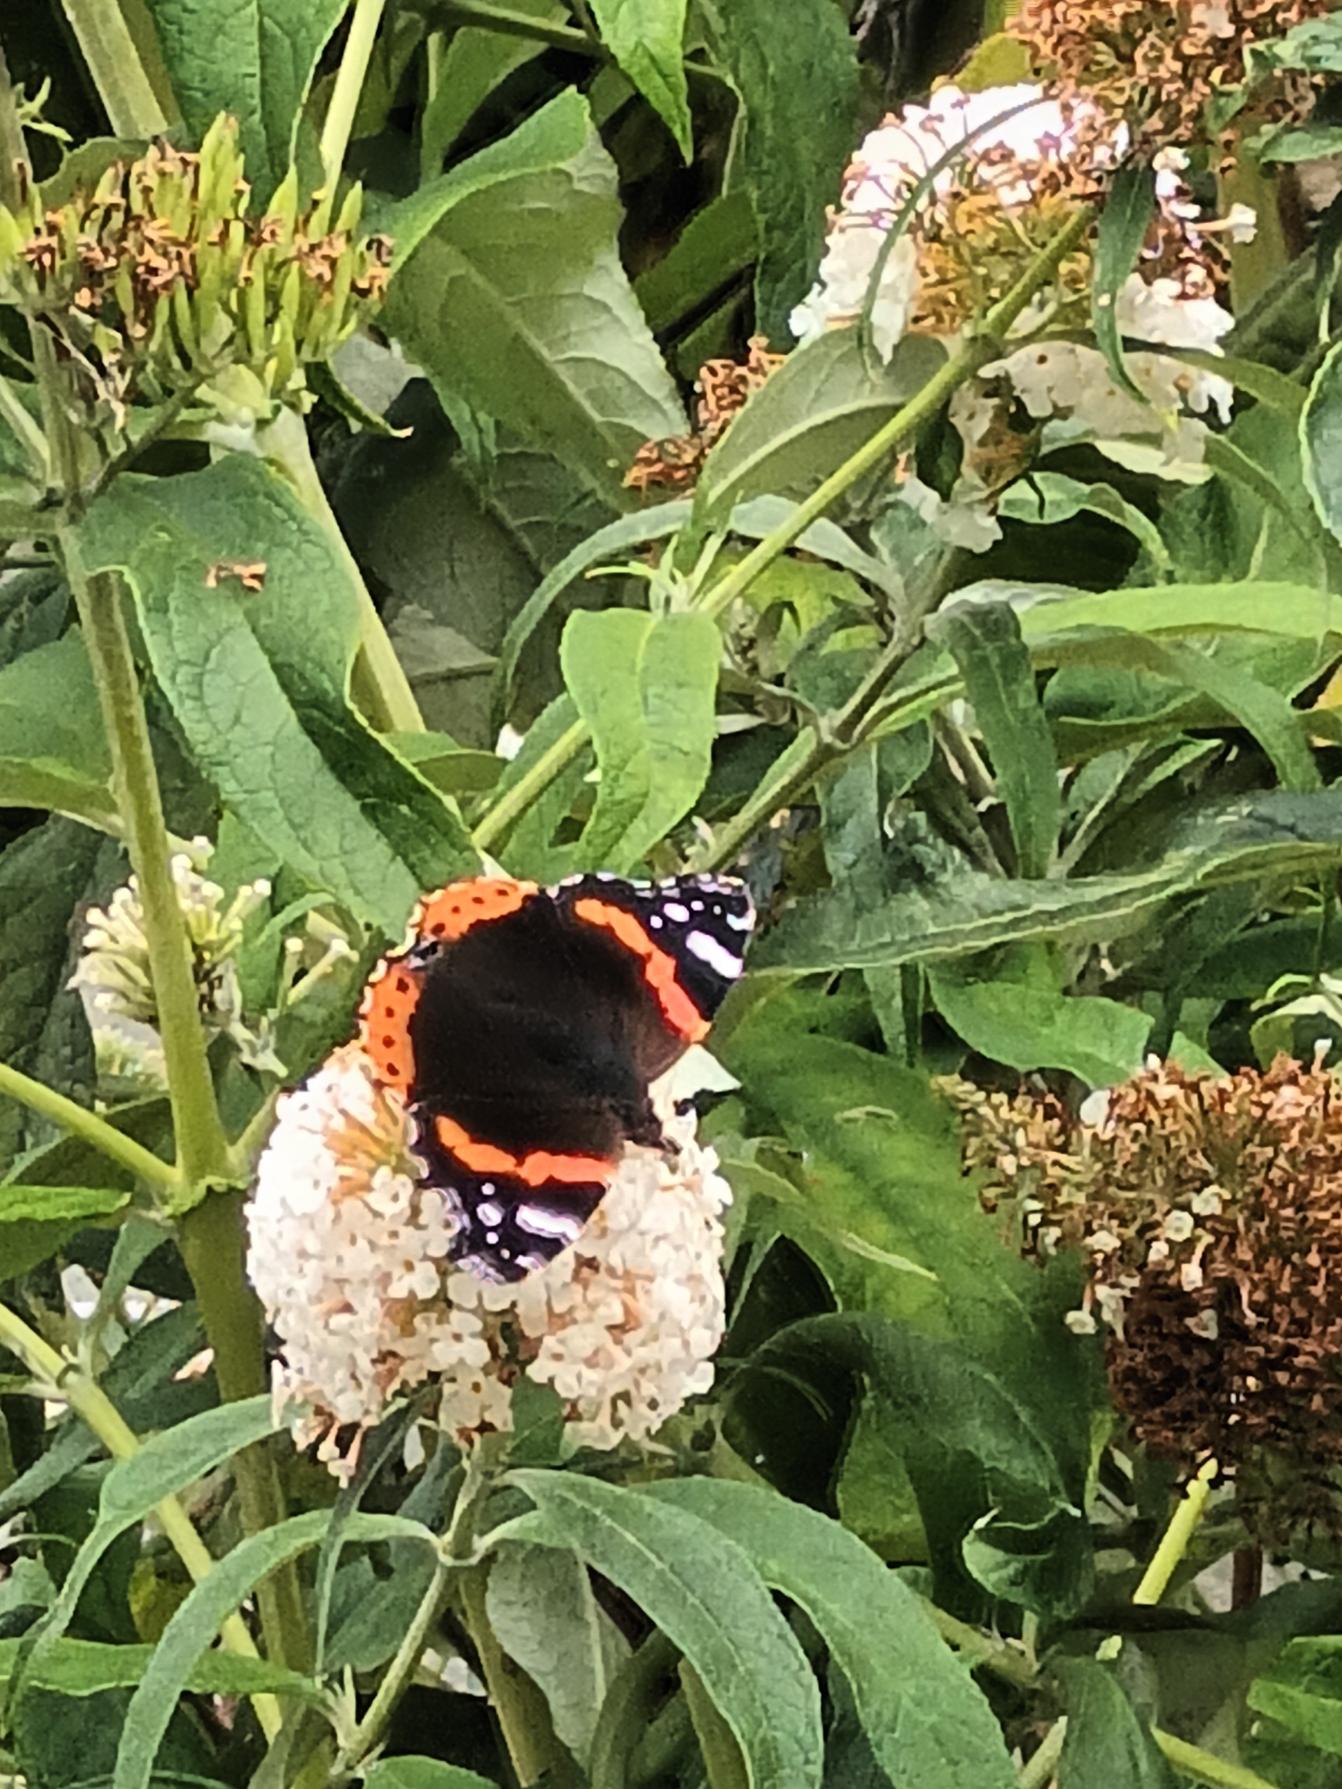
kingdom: Animalia
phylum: Arthropoda
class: Insecta
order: Lepidoptera
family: Nymphalidae
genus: Vanessa
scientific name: Vanessa atalanta
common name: Admiral
